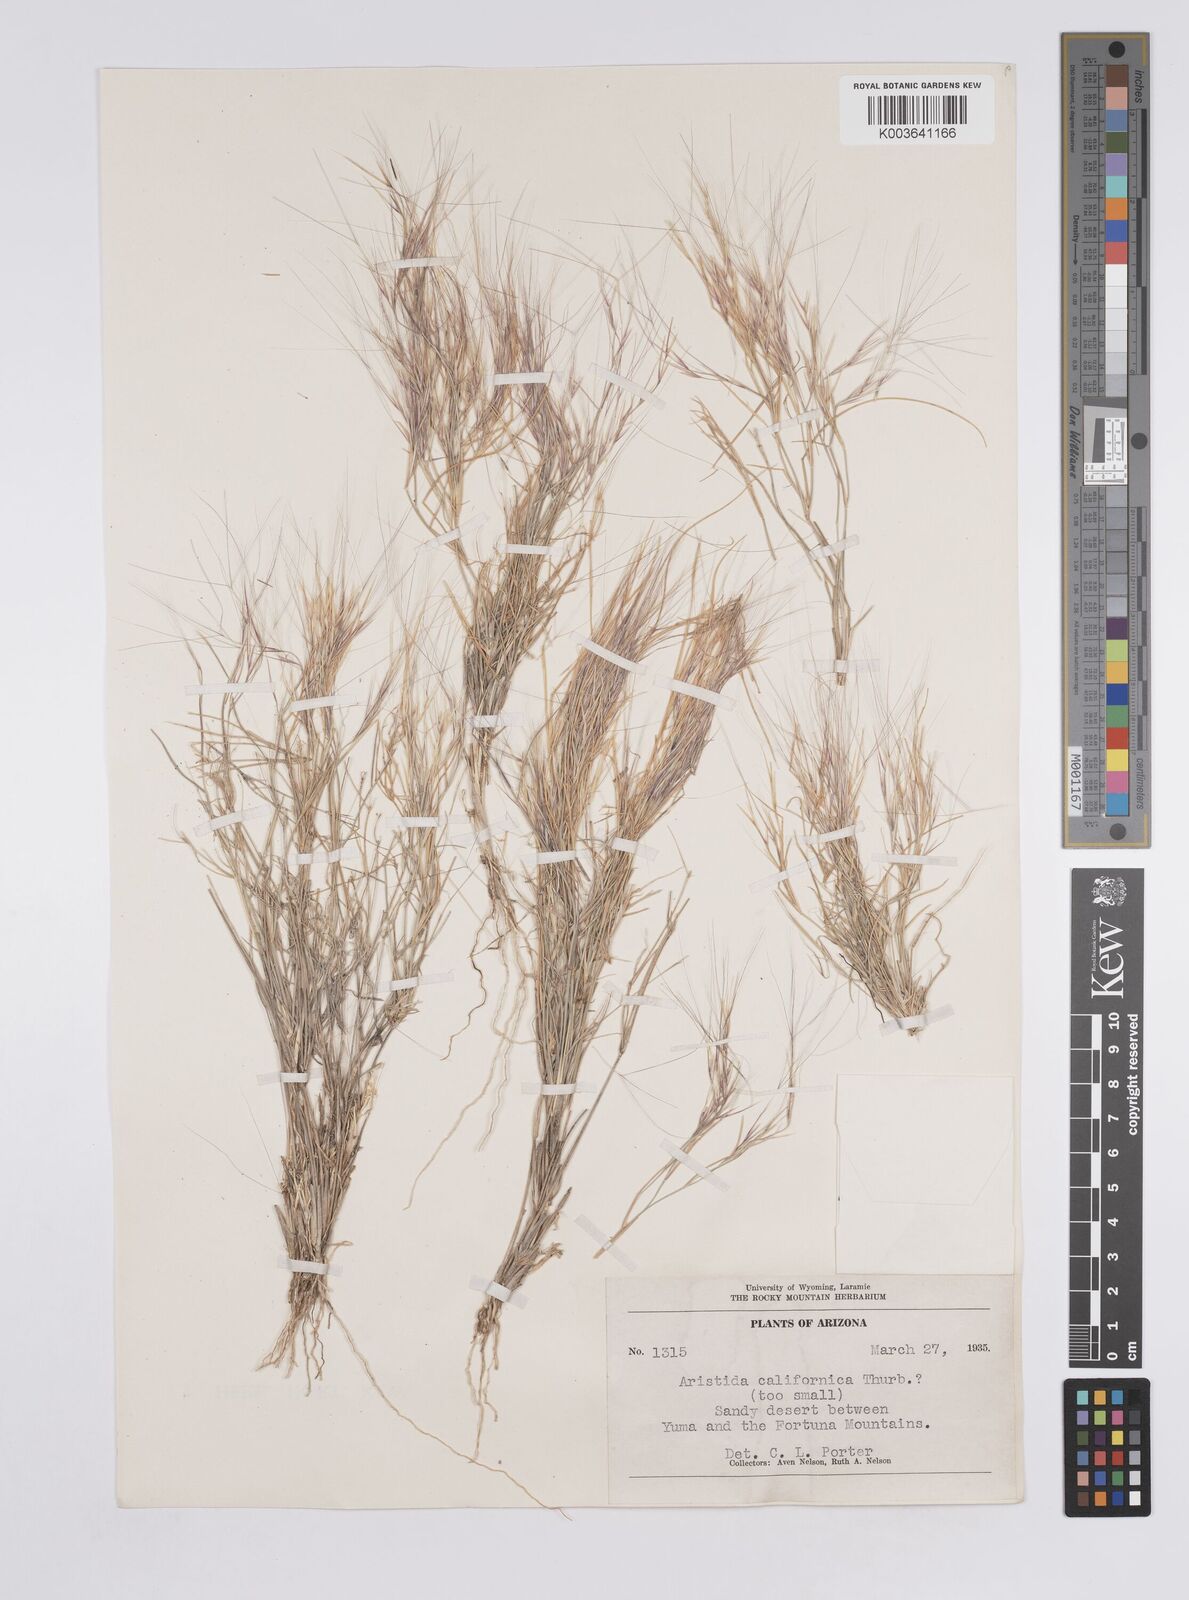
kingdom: Plantae
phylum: Tracheophyta
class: Liliopsida
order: Poales
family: Poaceae
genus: Aristida
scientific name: Aristida
